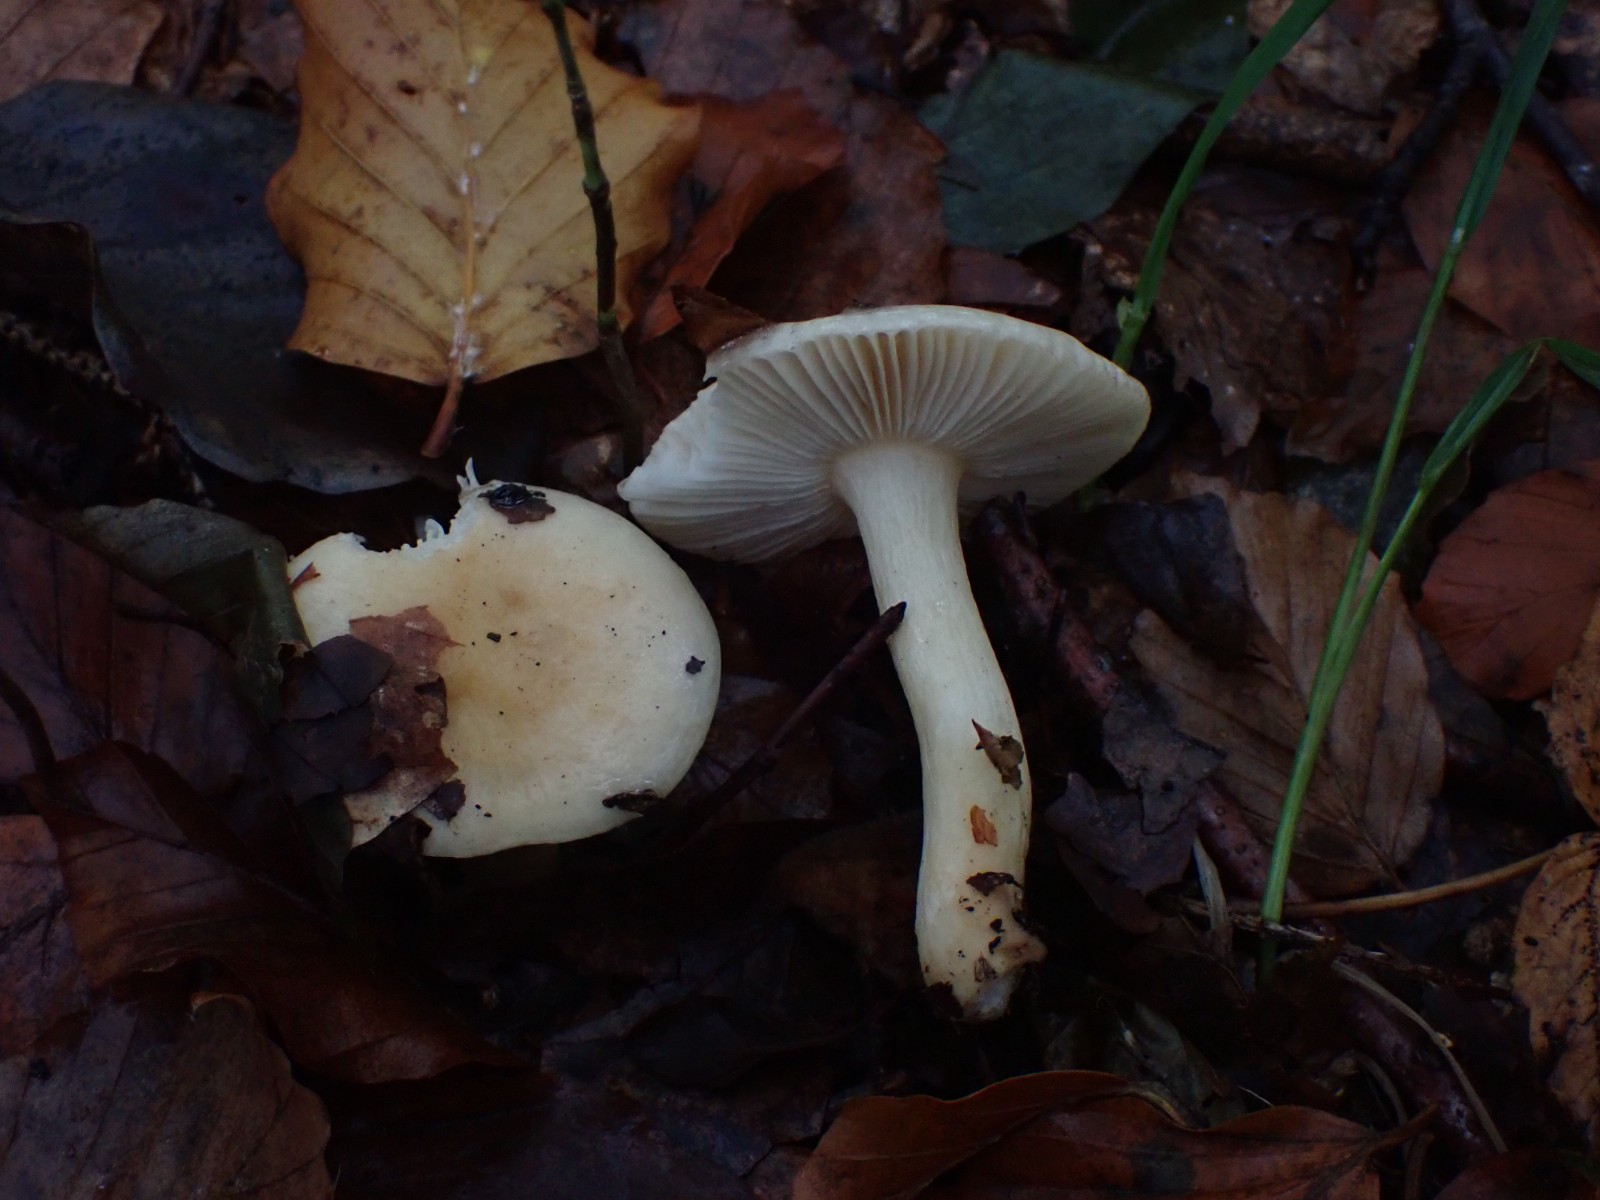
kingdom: Fungi
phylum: Basidiomycota
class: Agaricomycetes
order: Russulales
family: Russulaceae
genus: Russula
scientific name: Russula fellea
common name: galde-skørhat
